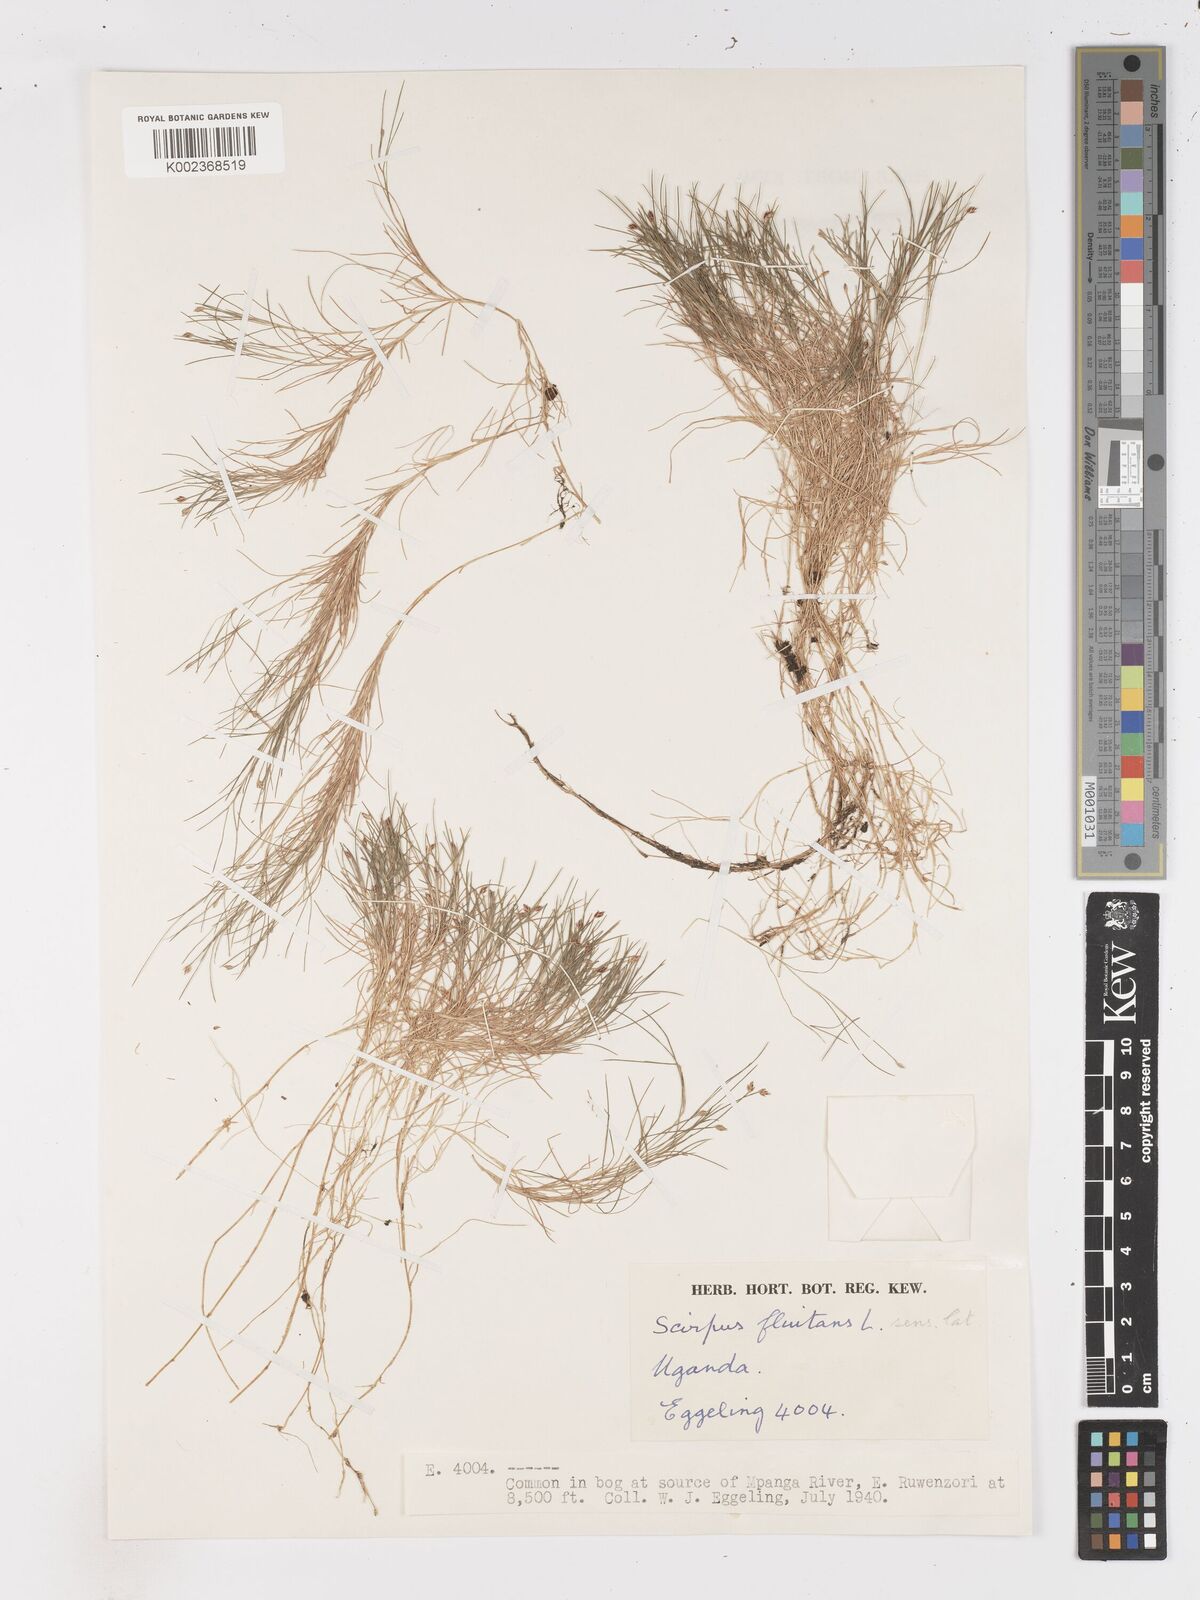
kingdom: Plantae
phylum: Tracheophyta
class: Liliopsida
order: Poales
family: Cyperaceae
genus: Isolepis
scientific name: Isolepis fluitans
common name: Floating club-rush
